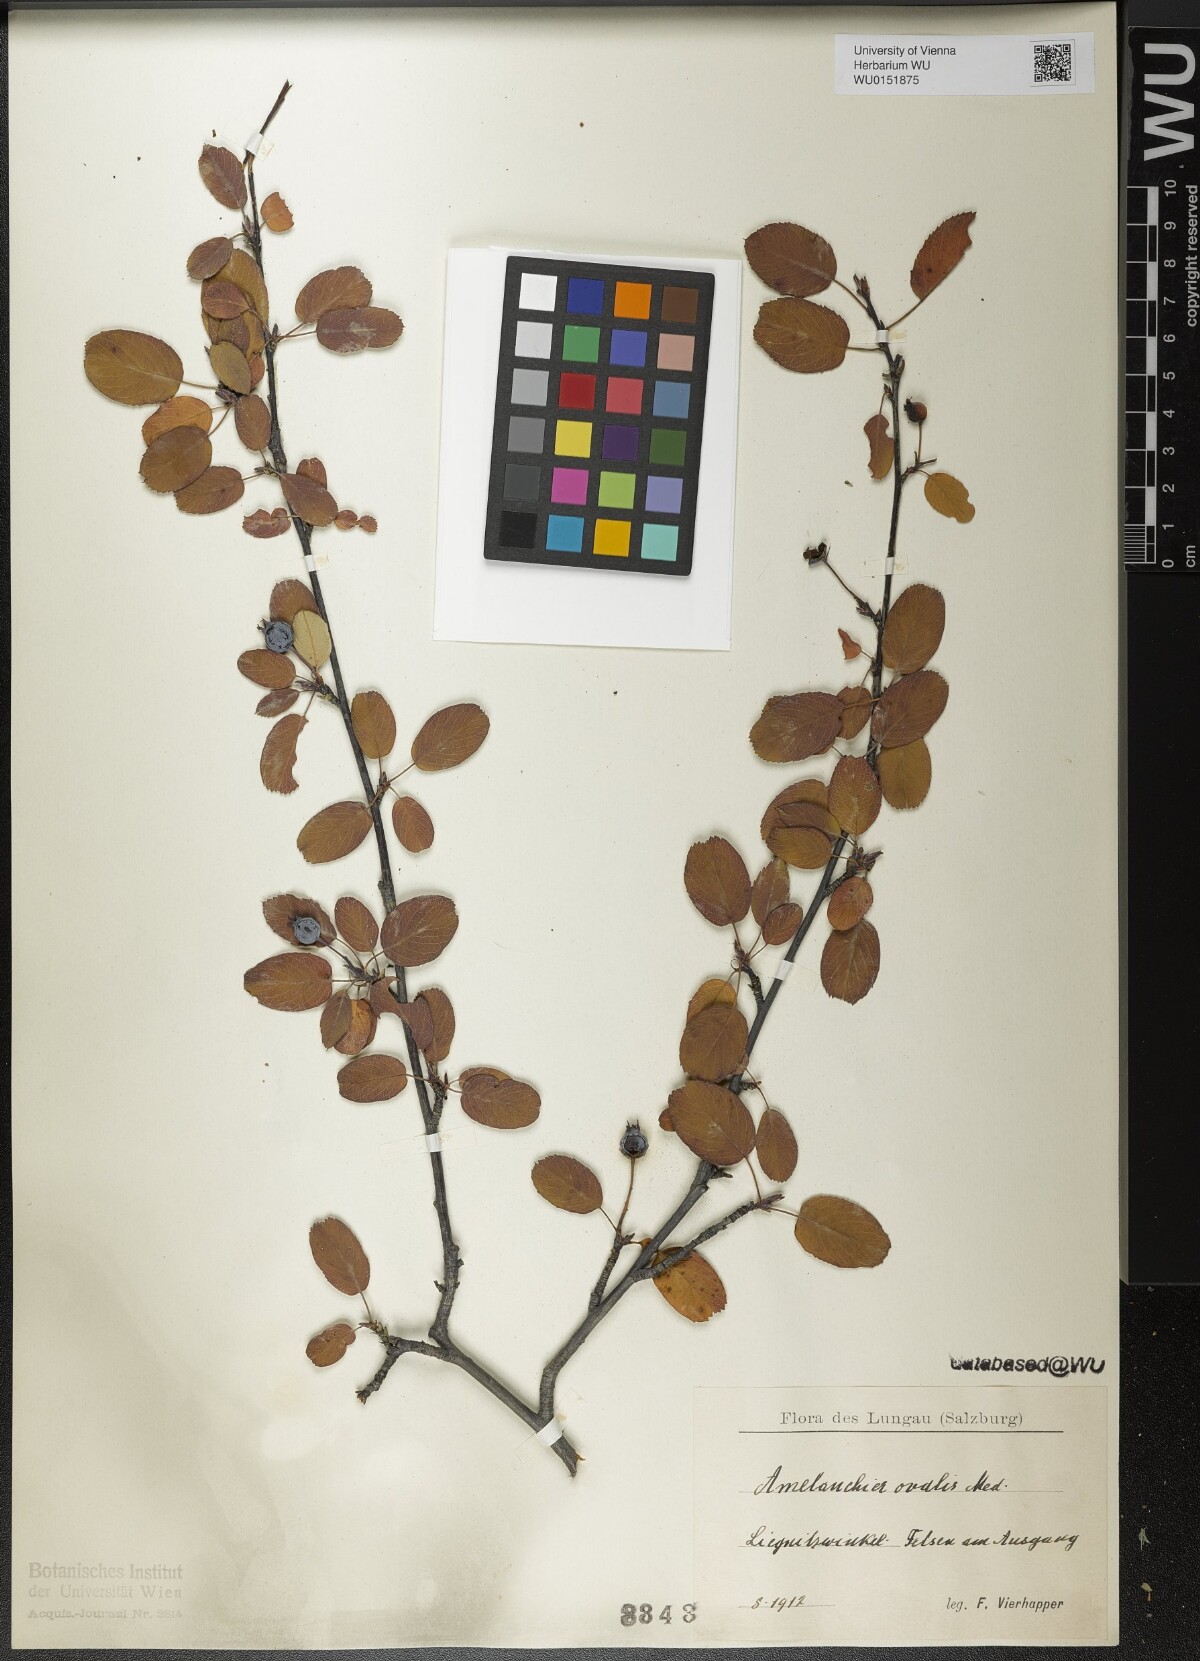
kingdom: Plantae
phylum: Tracheophyta
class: Magnoliopsida
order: Rosales
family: Rosaceae
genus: Amelanchier
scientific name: Amelanchier ovalis
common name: Serviceberry
